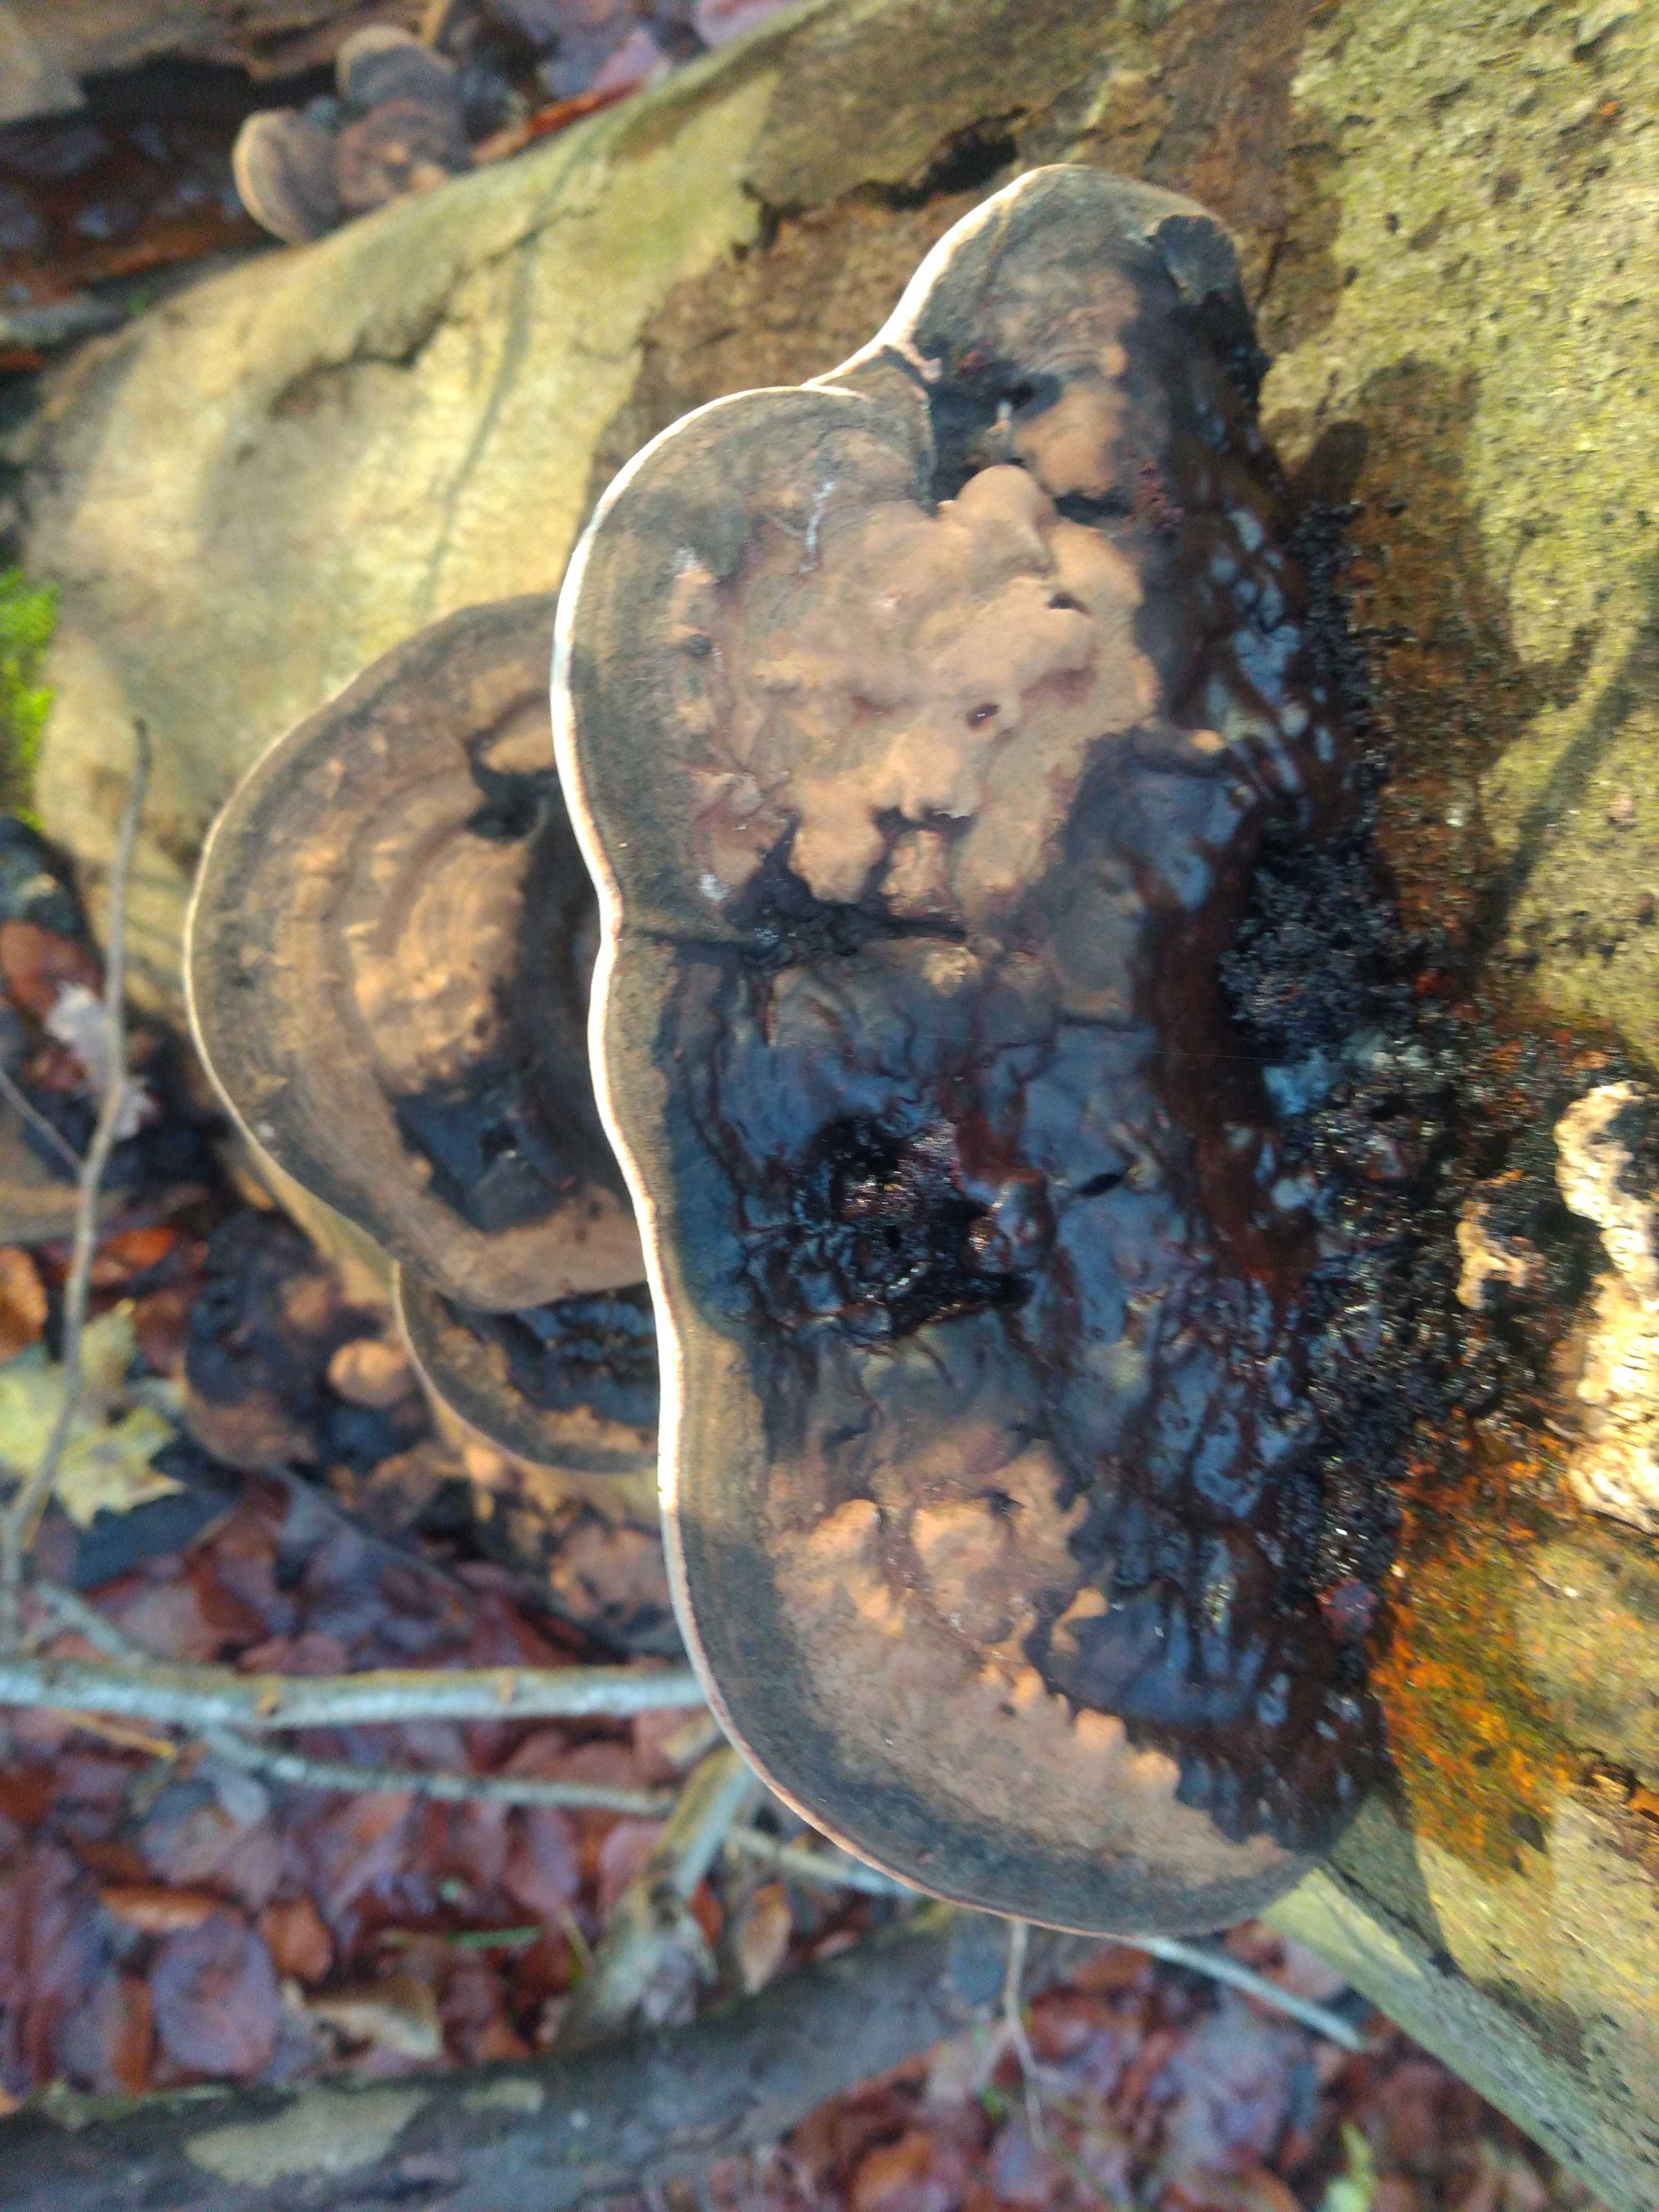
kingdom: Fungi
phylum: Basidiomycota
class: Agaricomycetes
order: Polyporales
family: Polyporaceae
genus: Ganoderma
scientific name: Ganoderma applanatum
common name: flad lakporesvamp
